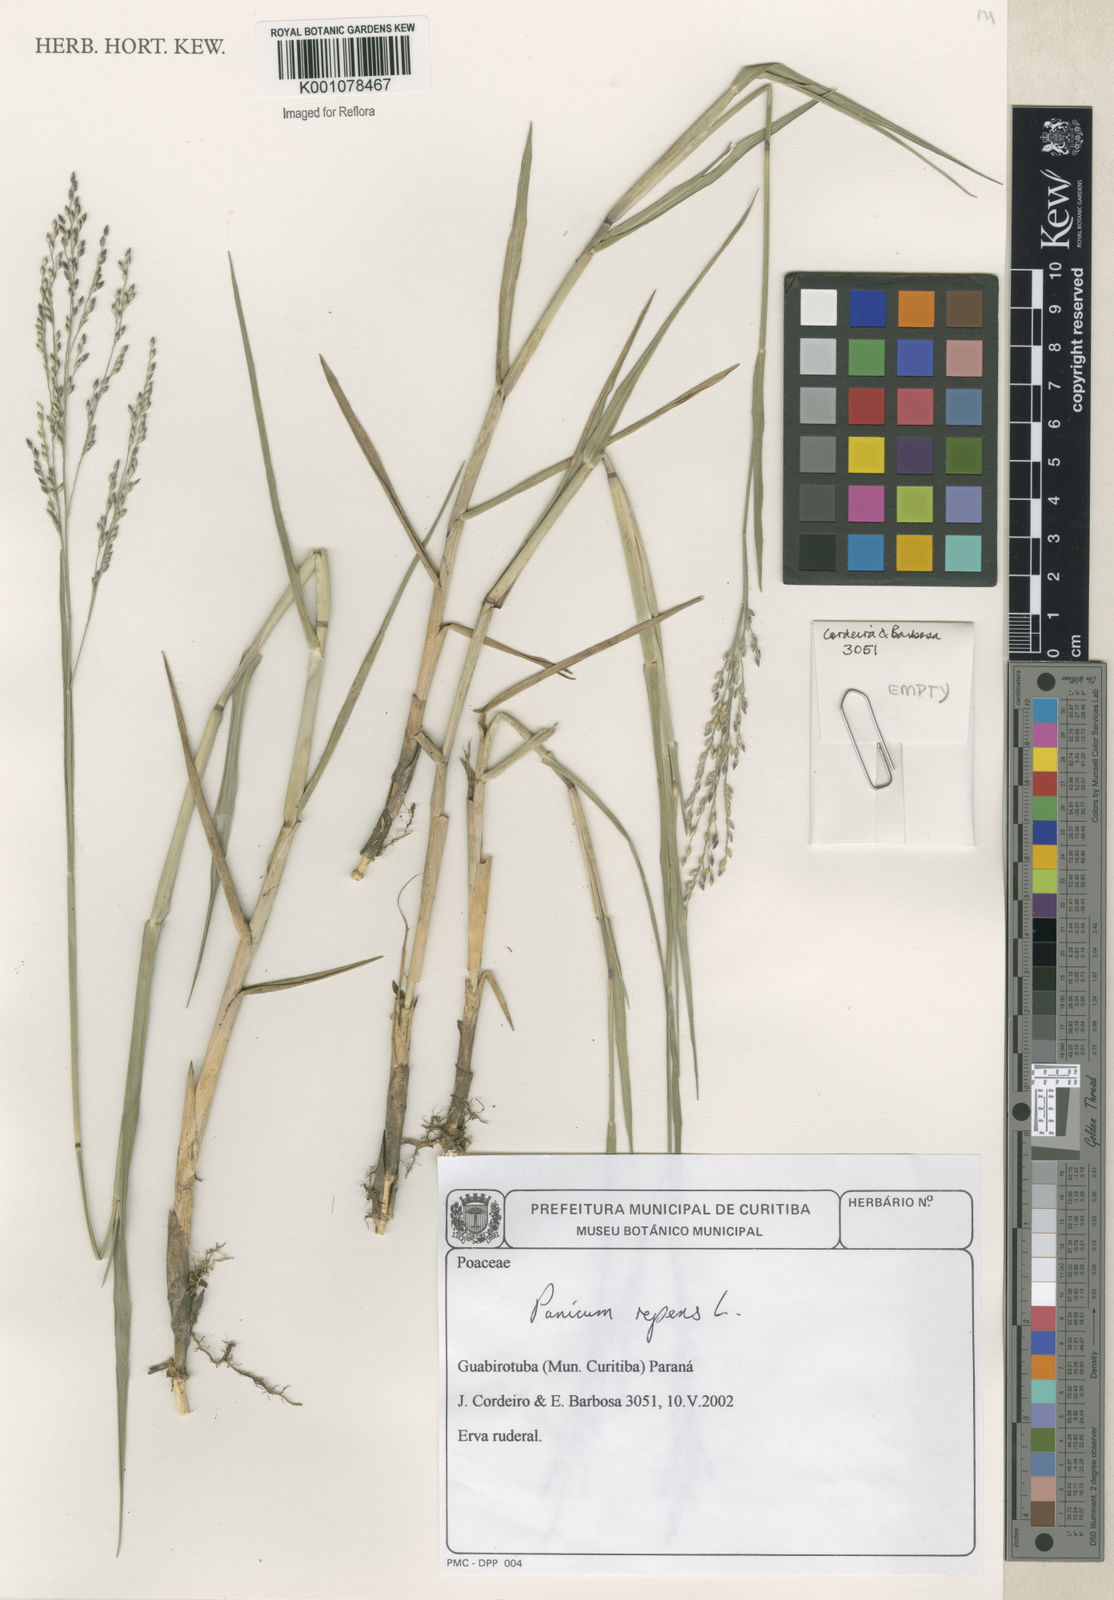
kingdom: Plantae
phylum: Tracheophyta
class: Liliopsida
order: Poales
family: Poaceae
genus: Panicum
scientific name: Panicum repens
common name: Torpedo grass
